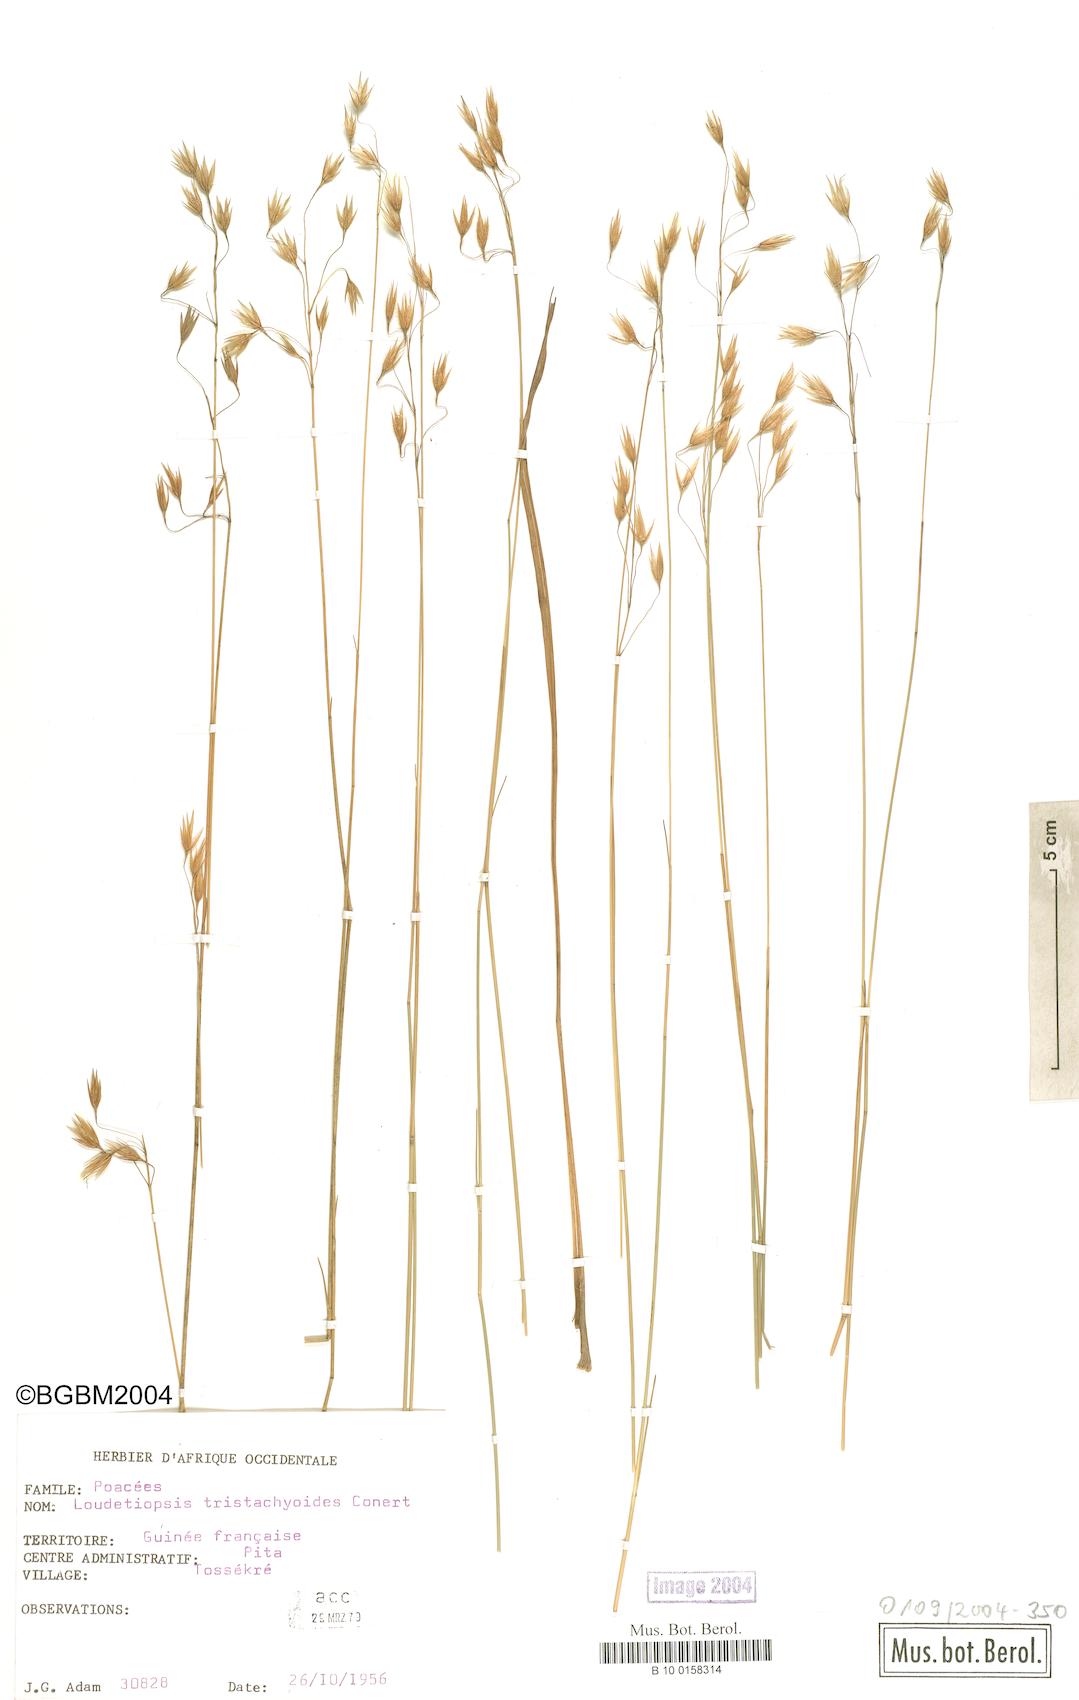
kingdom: Plantae
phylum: Tracheophyta
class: Liliopsida
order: Poales
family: Poaceae
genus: Dilophotriche
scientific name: Dilophotriche tristachyoides
